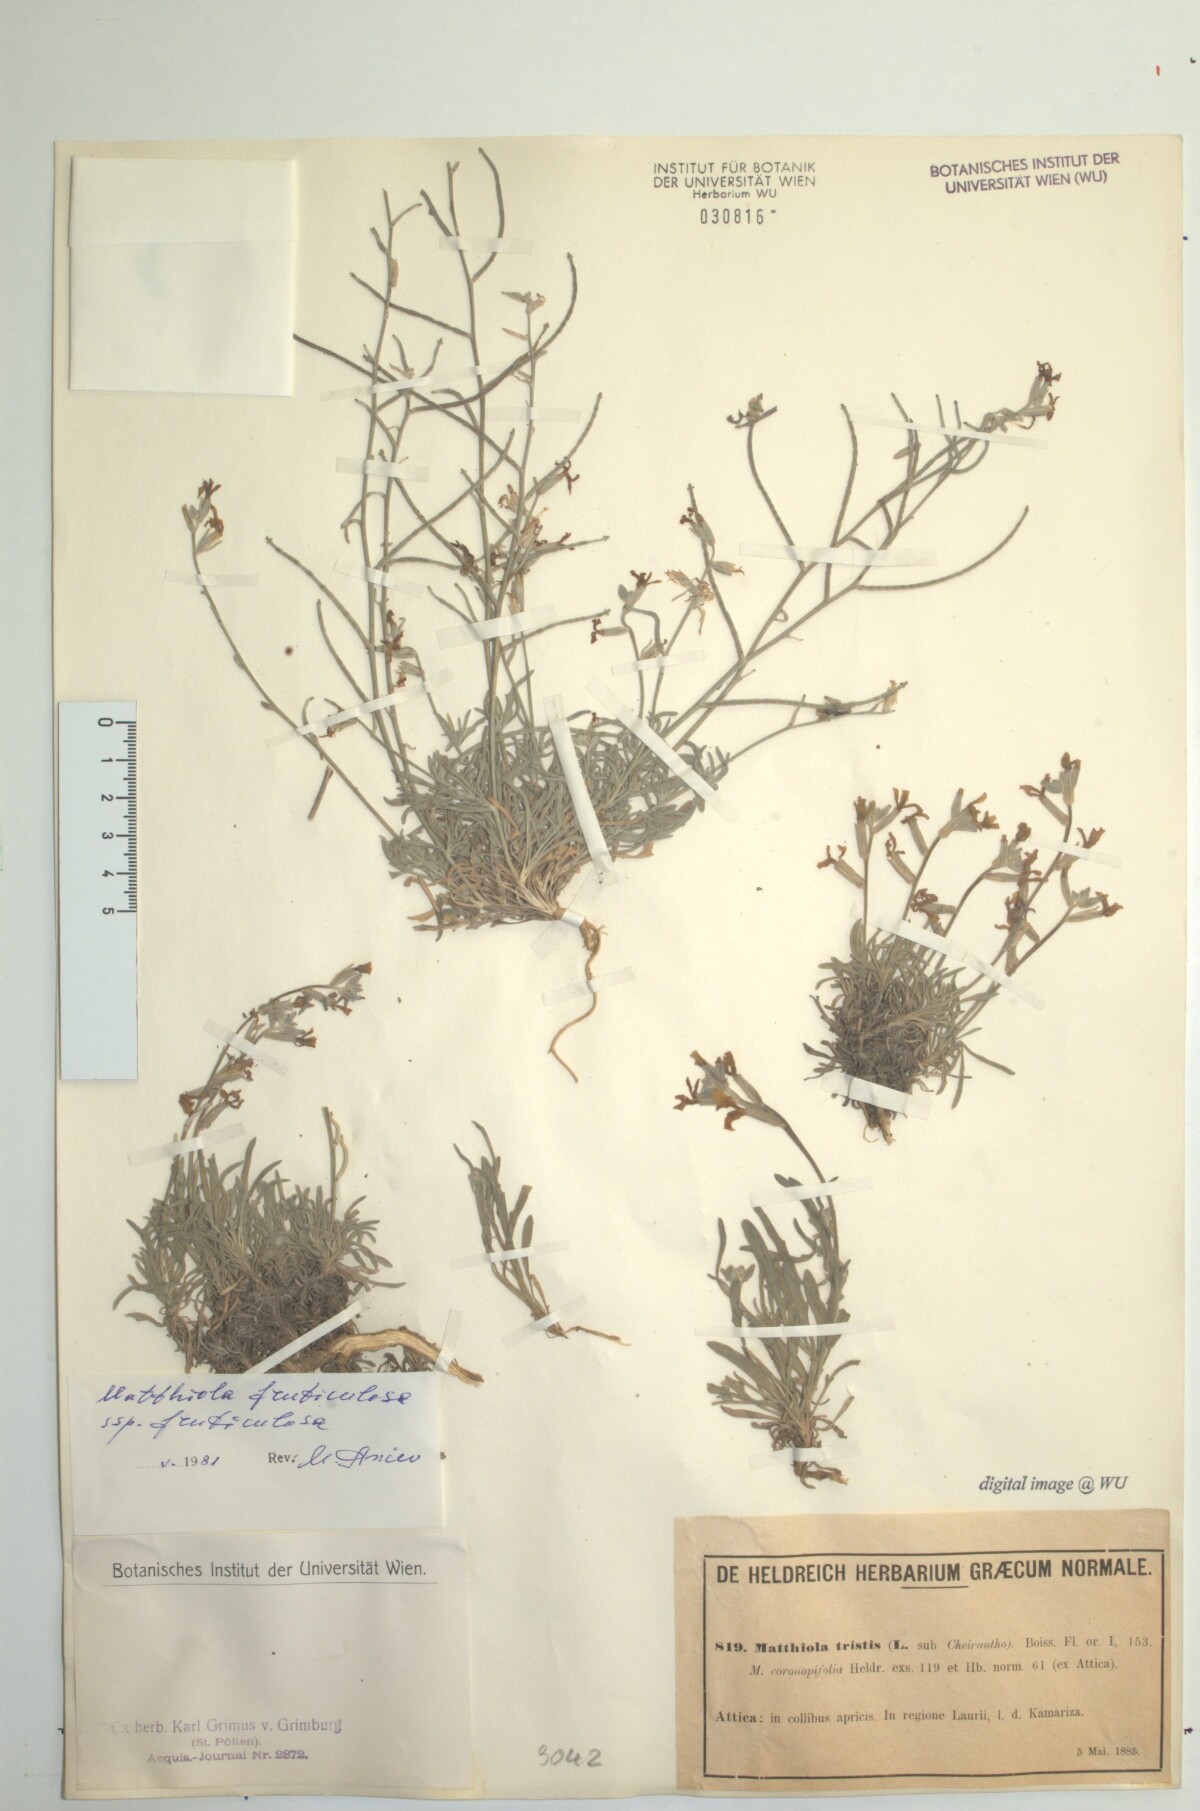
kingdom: Plantae
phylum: Tracheophyta
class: Magnoliopsida
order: Brassicales
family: Brassicaceae
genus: Matthiola
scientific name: Matthiola fruticulosa
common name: Sad stock
